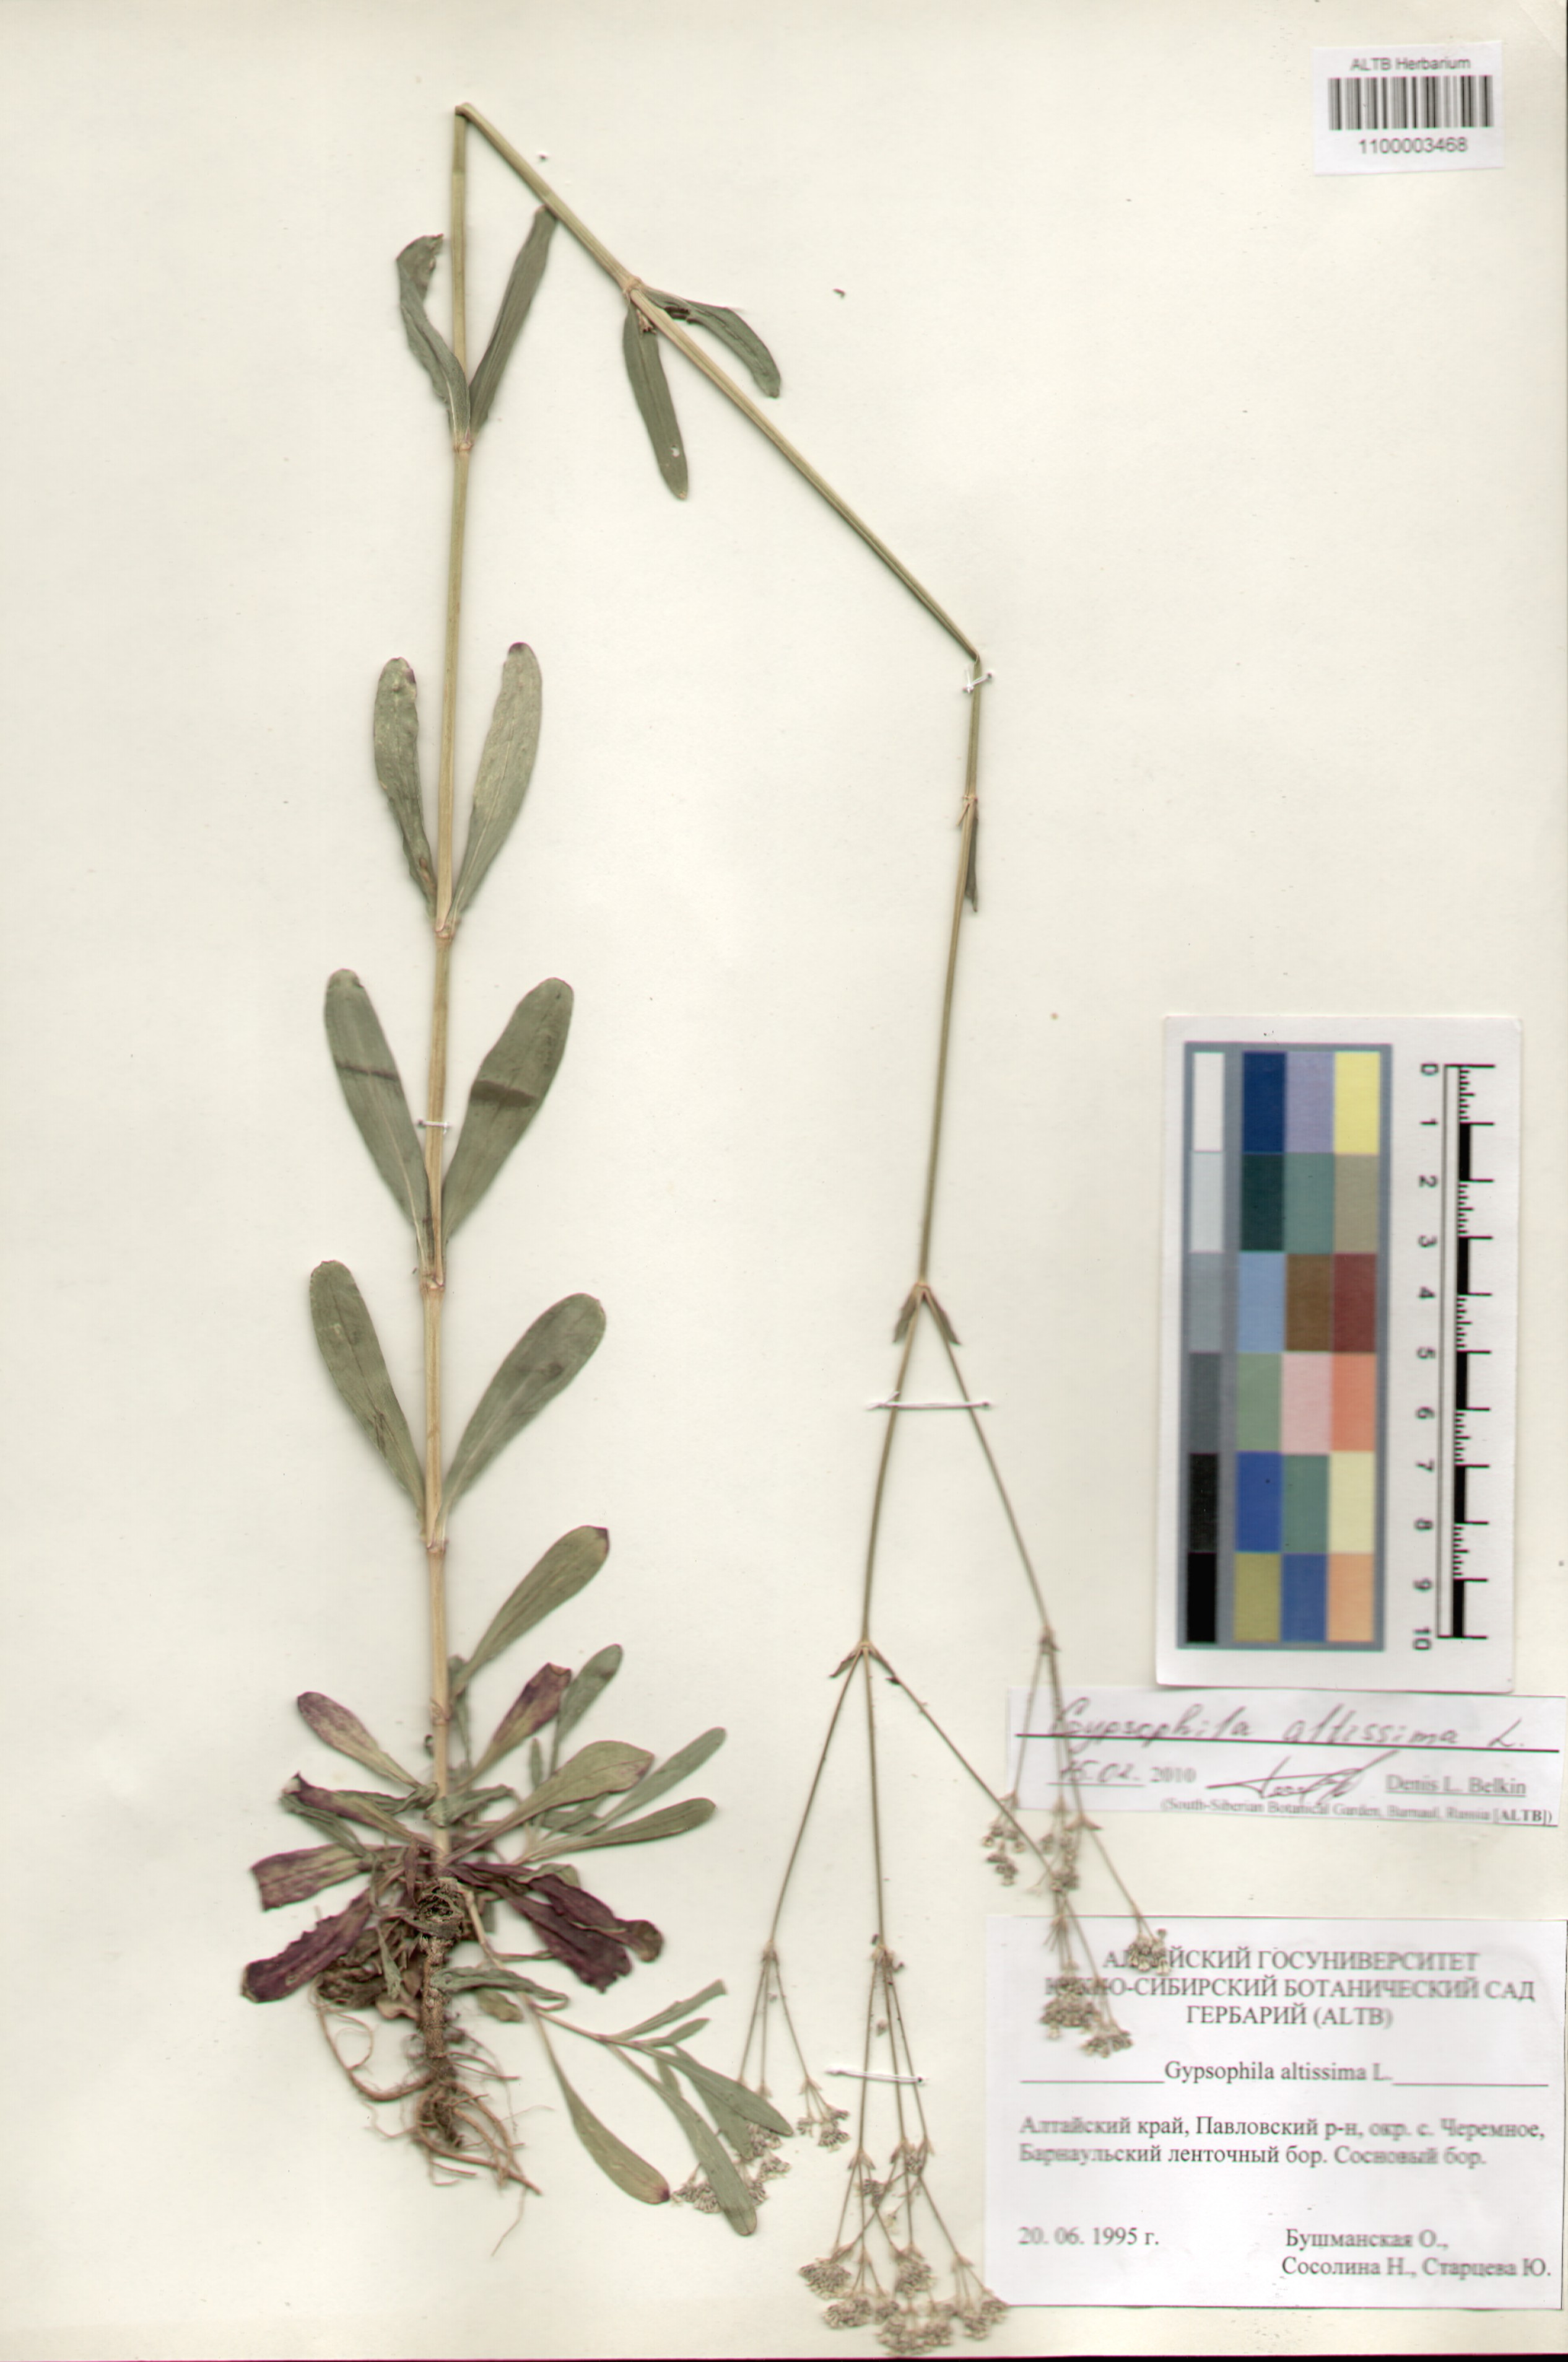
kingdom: Plantae
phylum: Tracheophyta
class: Magnoliopsida
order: Caryophyllales
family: Caryophyllaceae
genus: Gypsophila
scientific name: Gypsophila altissima
